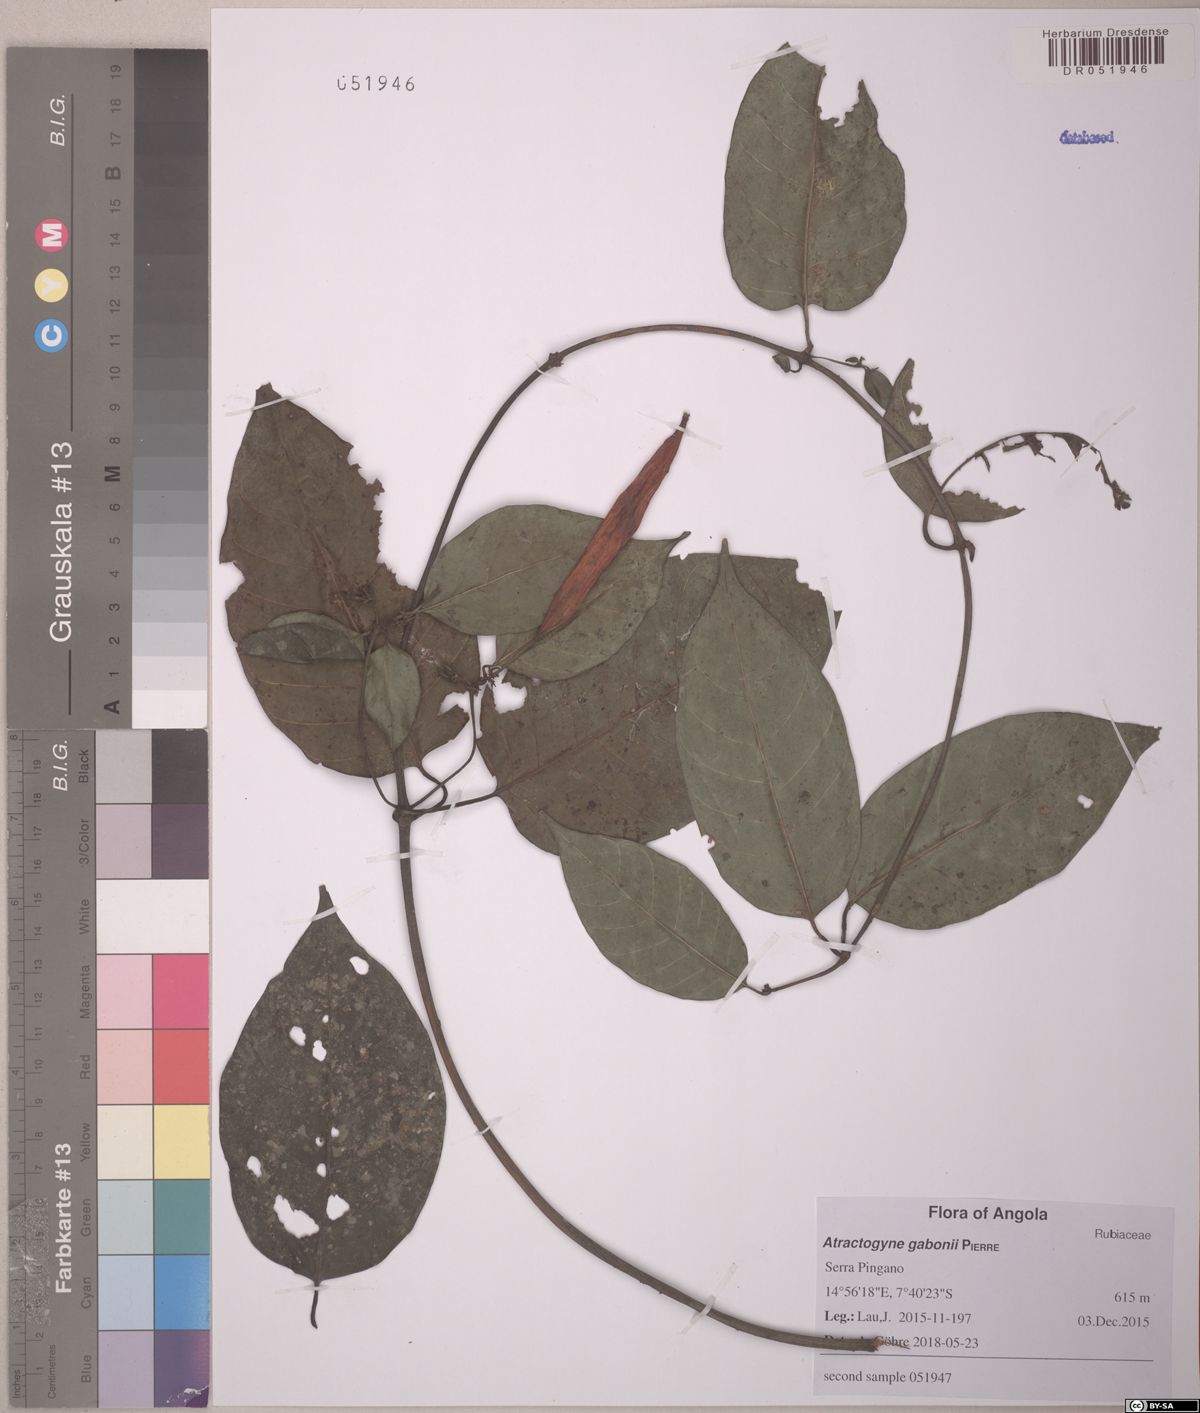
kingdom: Plantae
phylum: Tracheophyta
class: Magnoliopsida
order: Gentianales
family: Rubiaceae
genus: Atractogyne
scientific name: Atractogyne gabonii
